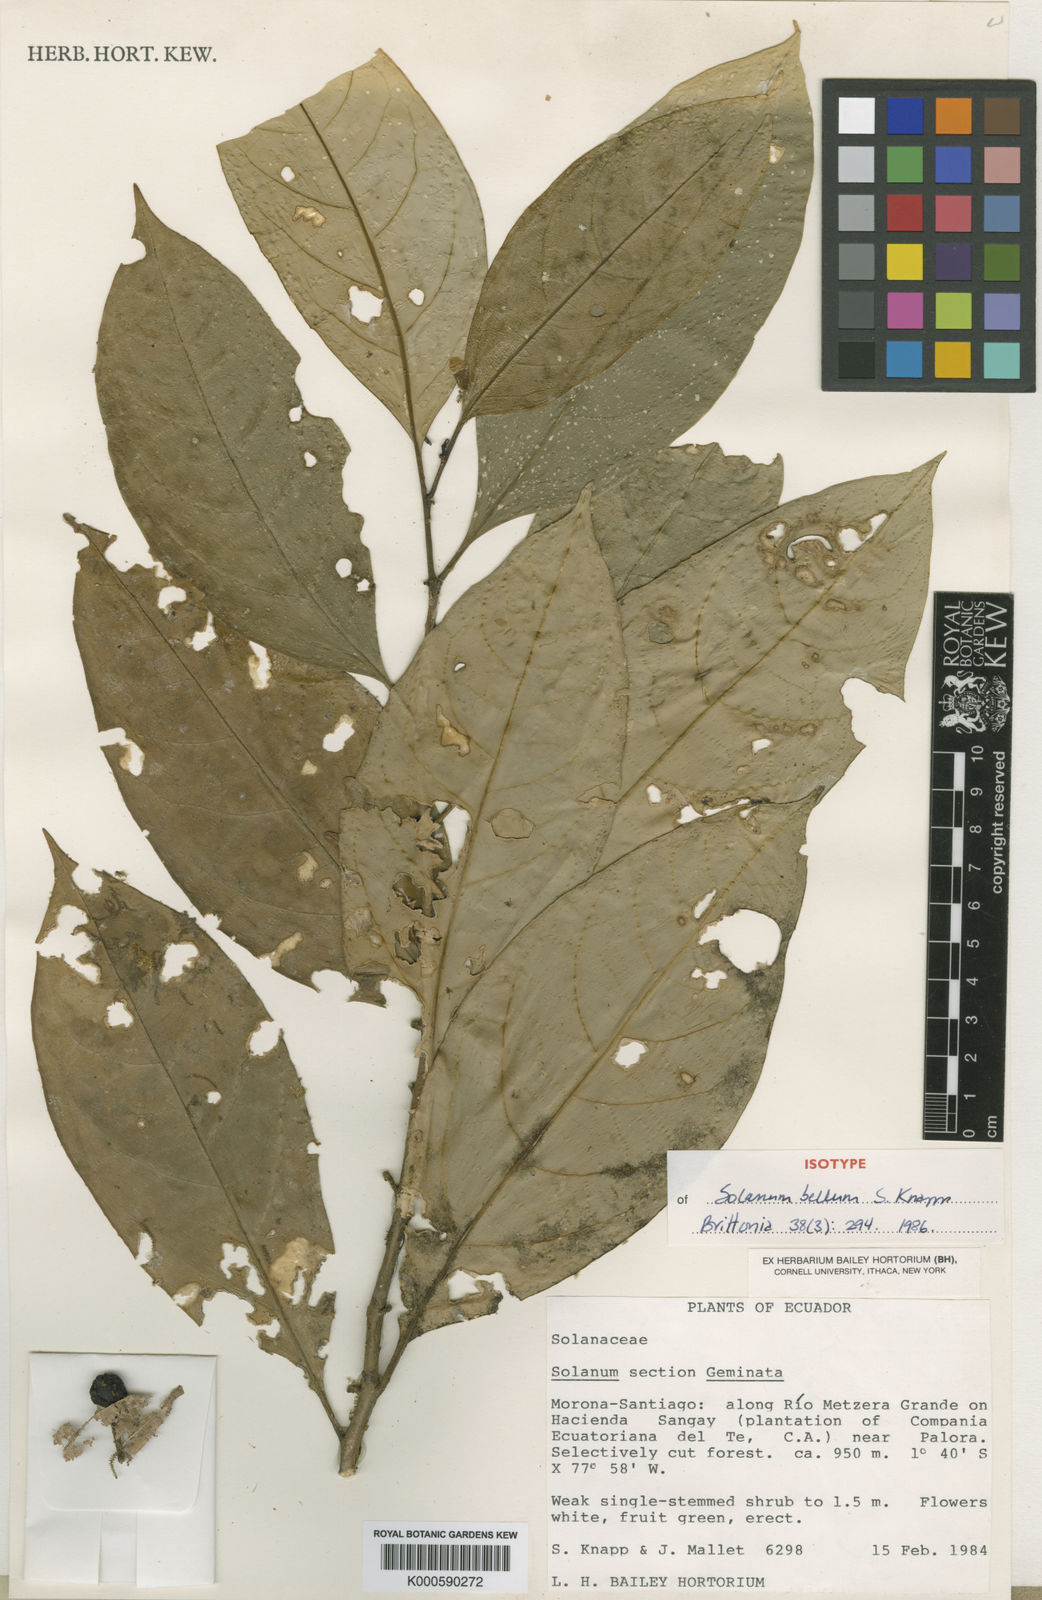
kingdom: Plantae
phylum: Tracheophyta
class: Magnoliopsida
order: Solanales
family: Solanaceae
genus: Solanum
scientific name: Solanum bellum
